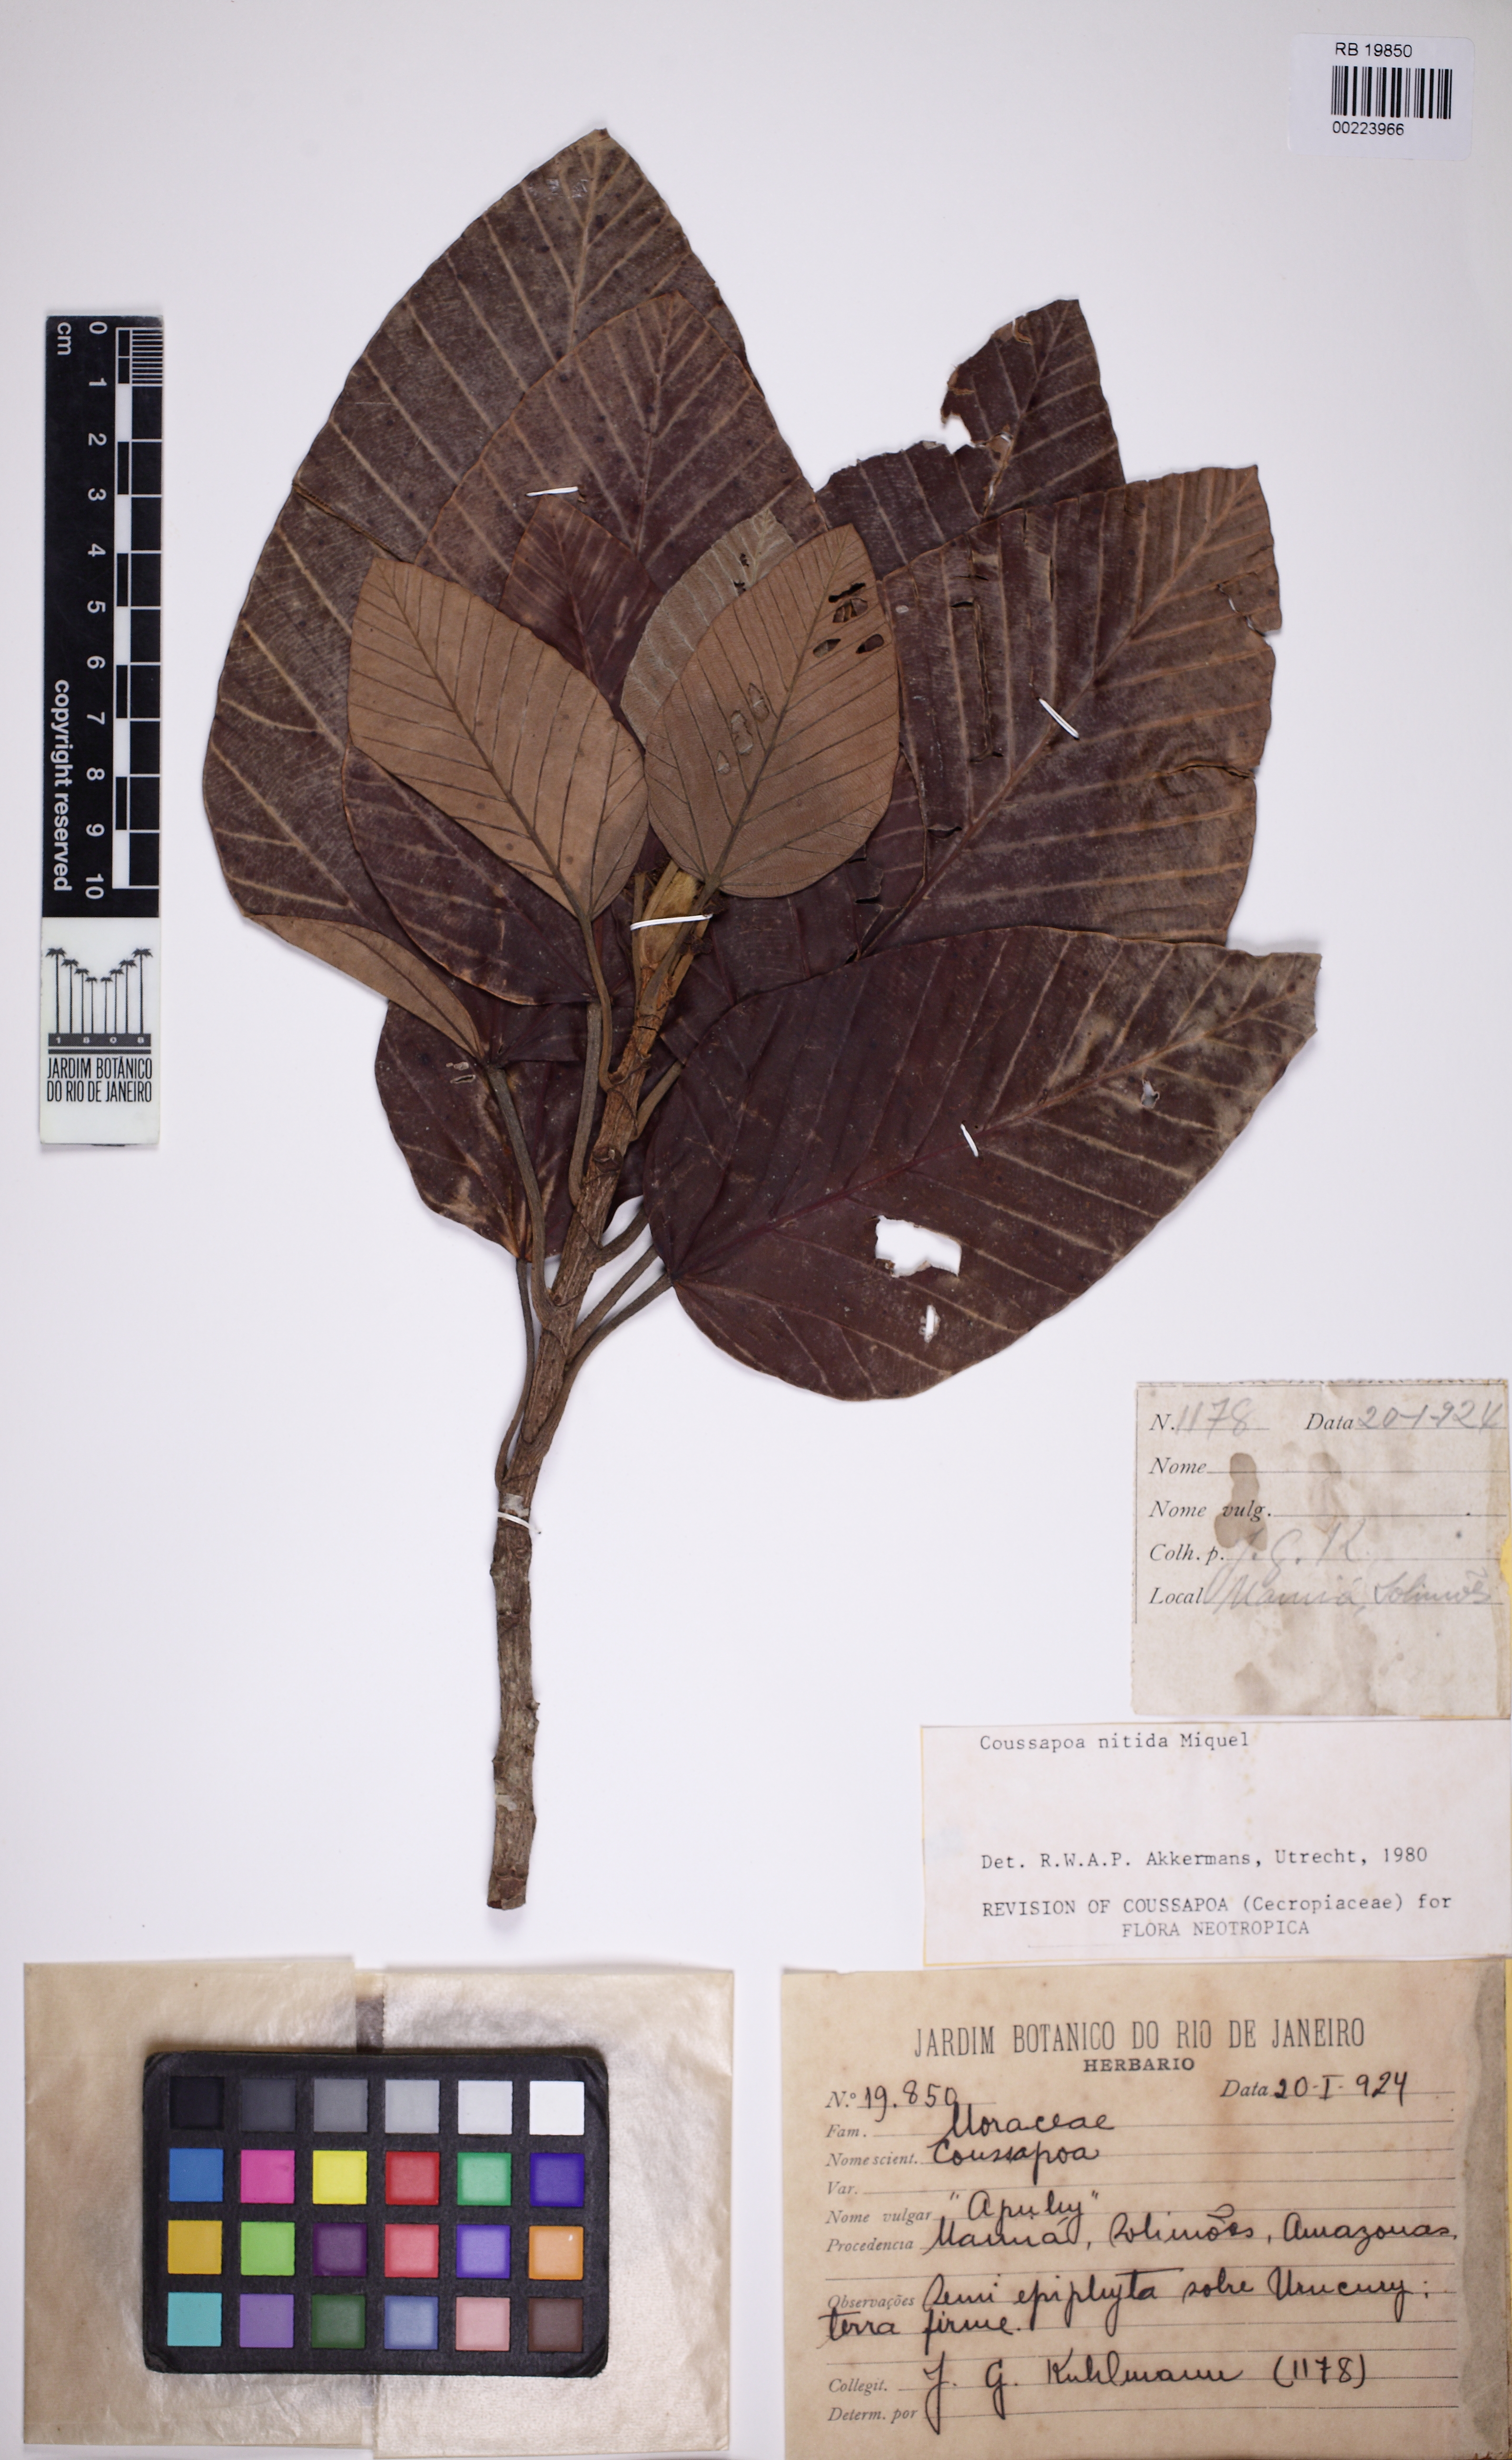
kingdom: Plantae
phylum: Tracheophyta
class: Magnoliopsida
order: Rosales
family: Urticaceae
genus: Coussapoa
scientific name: Coussapoa nitida
